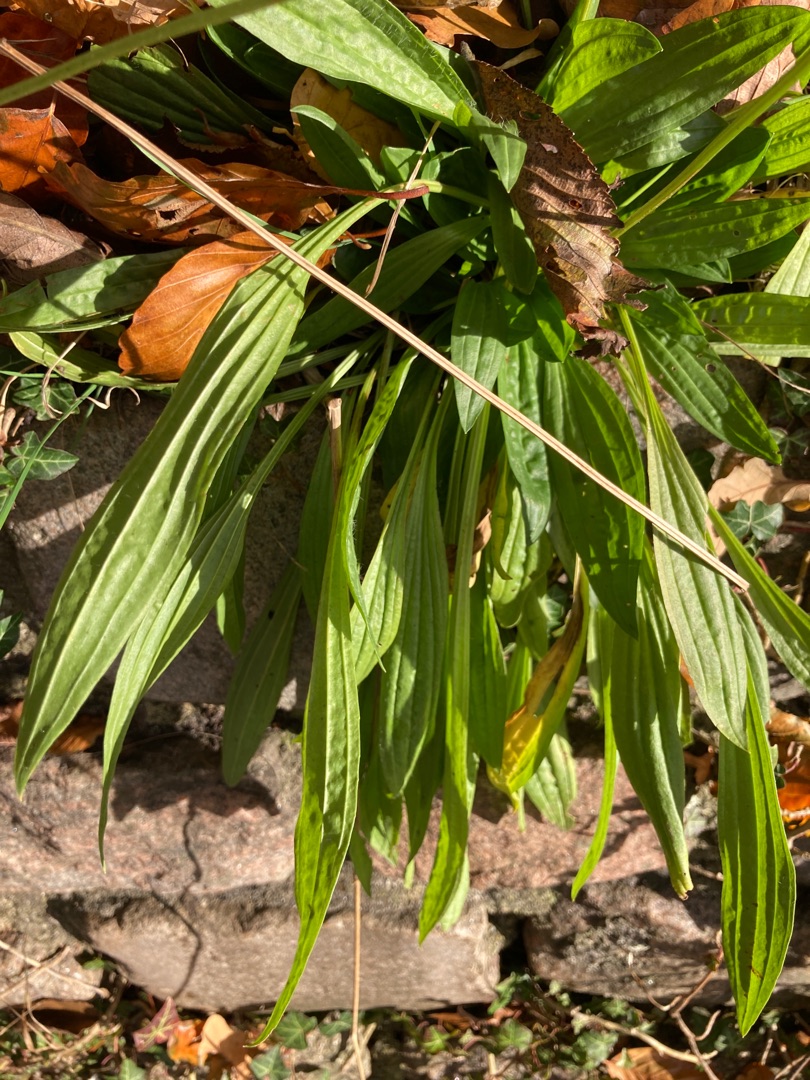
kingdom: Plantae
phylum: Tracheophyta
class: Magnoliopsida
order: Lamiales
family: Plantaginaceae
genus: Plantago
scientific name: Plantago lanceolata
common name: Lancet-vejbred
